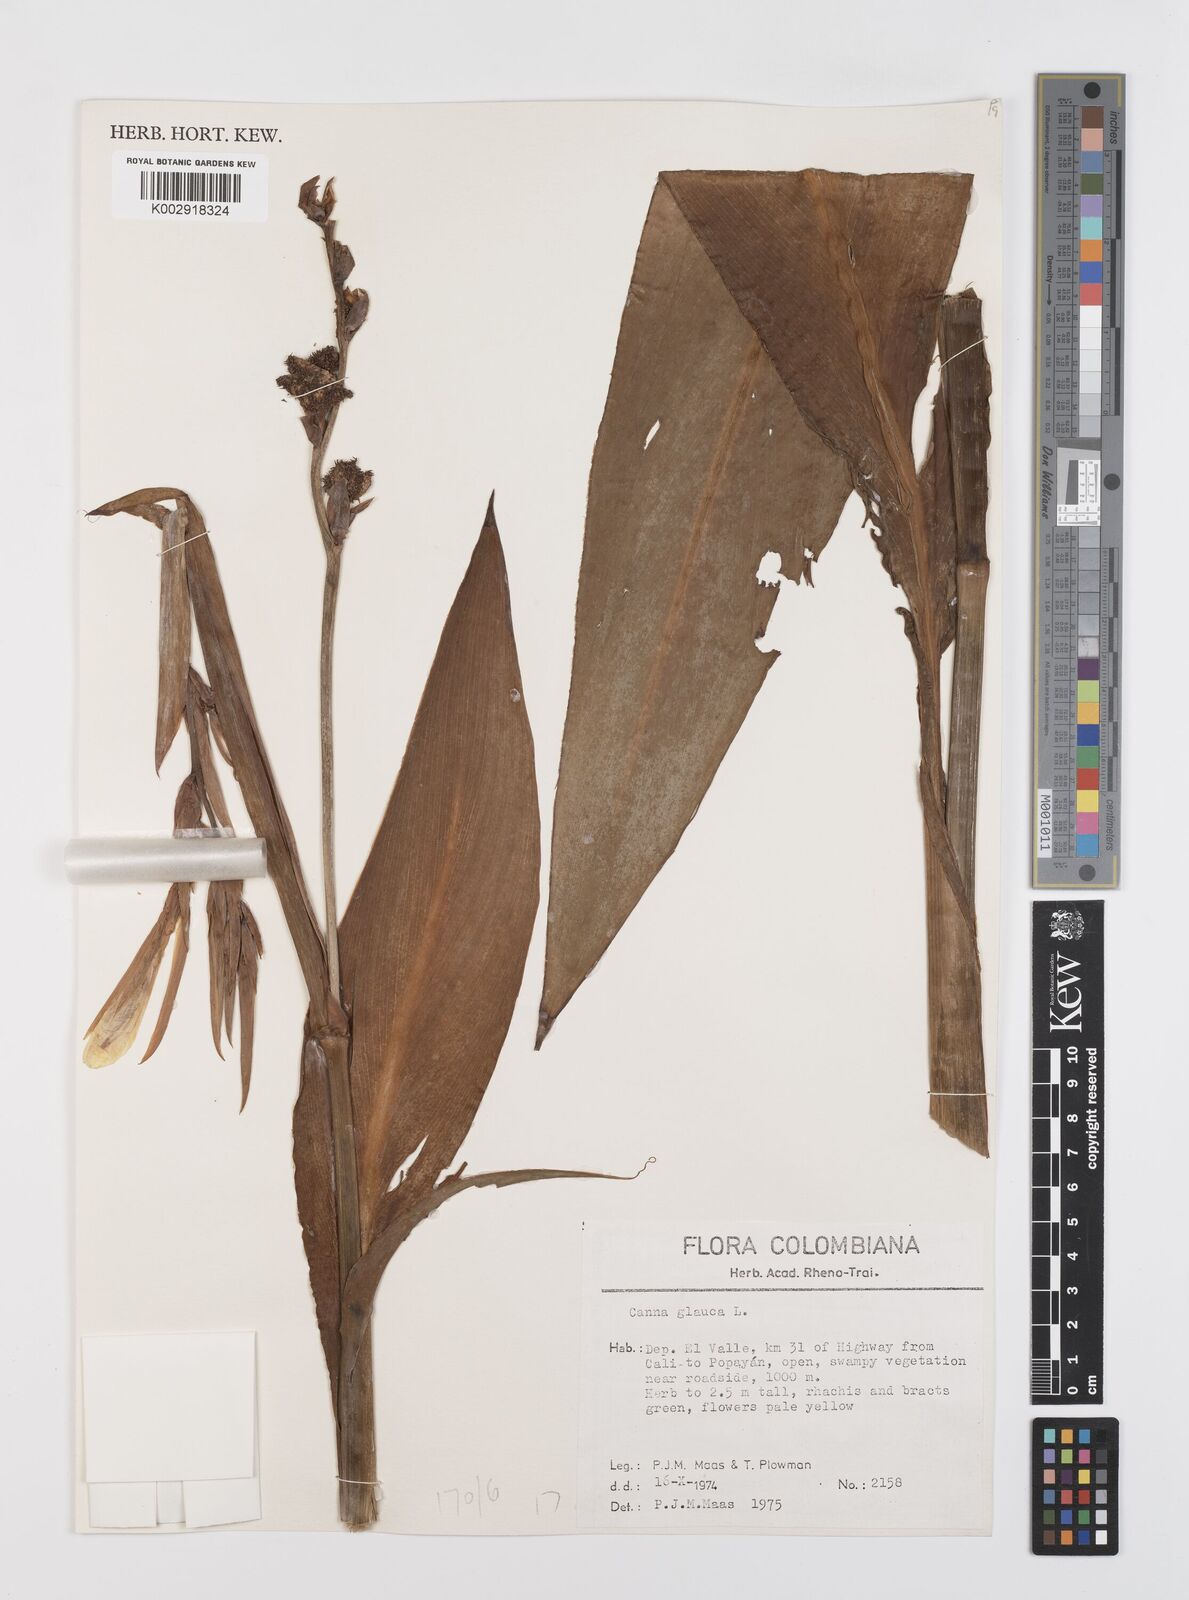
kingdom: Plantae
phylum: Tracheophyta
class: Liliopsida
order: Zingiberales
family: Cannaceae
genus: Canna
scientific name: Canna glauca
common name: Louisiana canna
